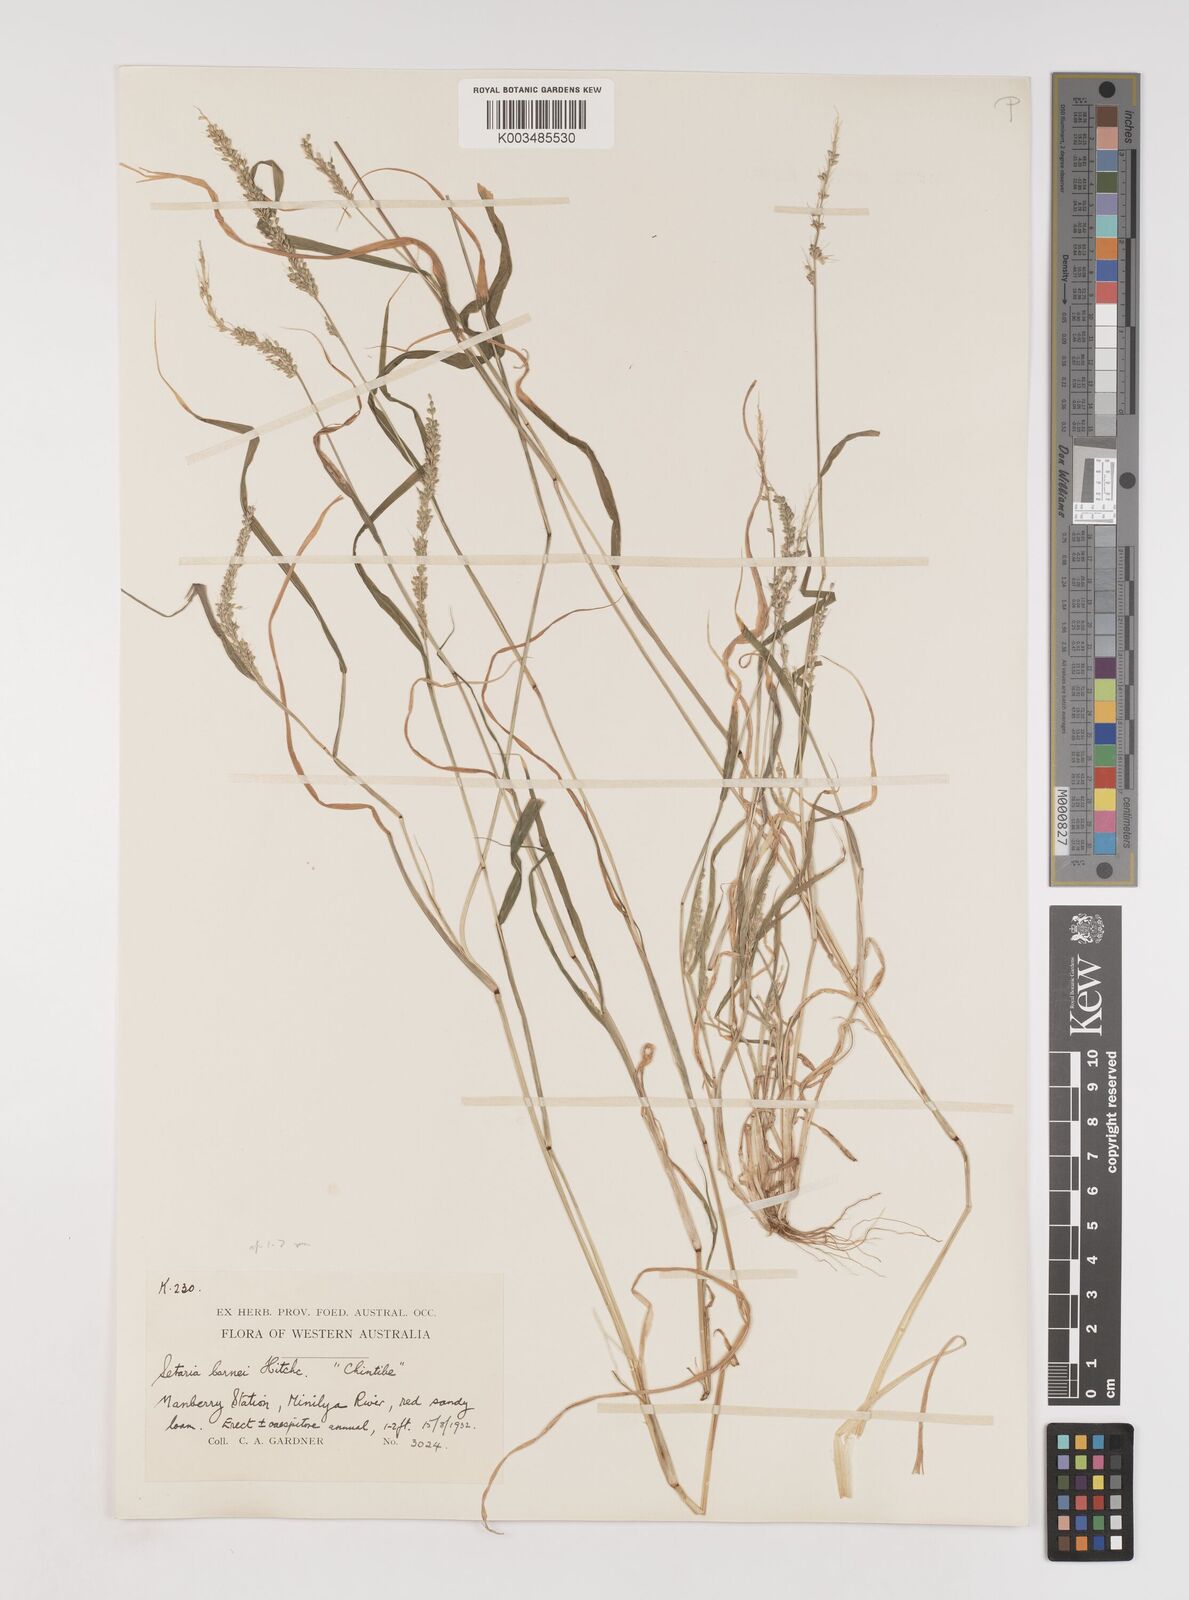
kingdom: Plantae
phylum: Tracheophyta
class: Liliopsida
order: Poales
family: Poaceae
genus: Setaria
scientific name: Setaria verticillata
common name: Hooked bristlegrass
